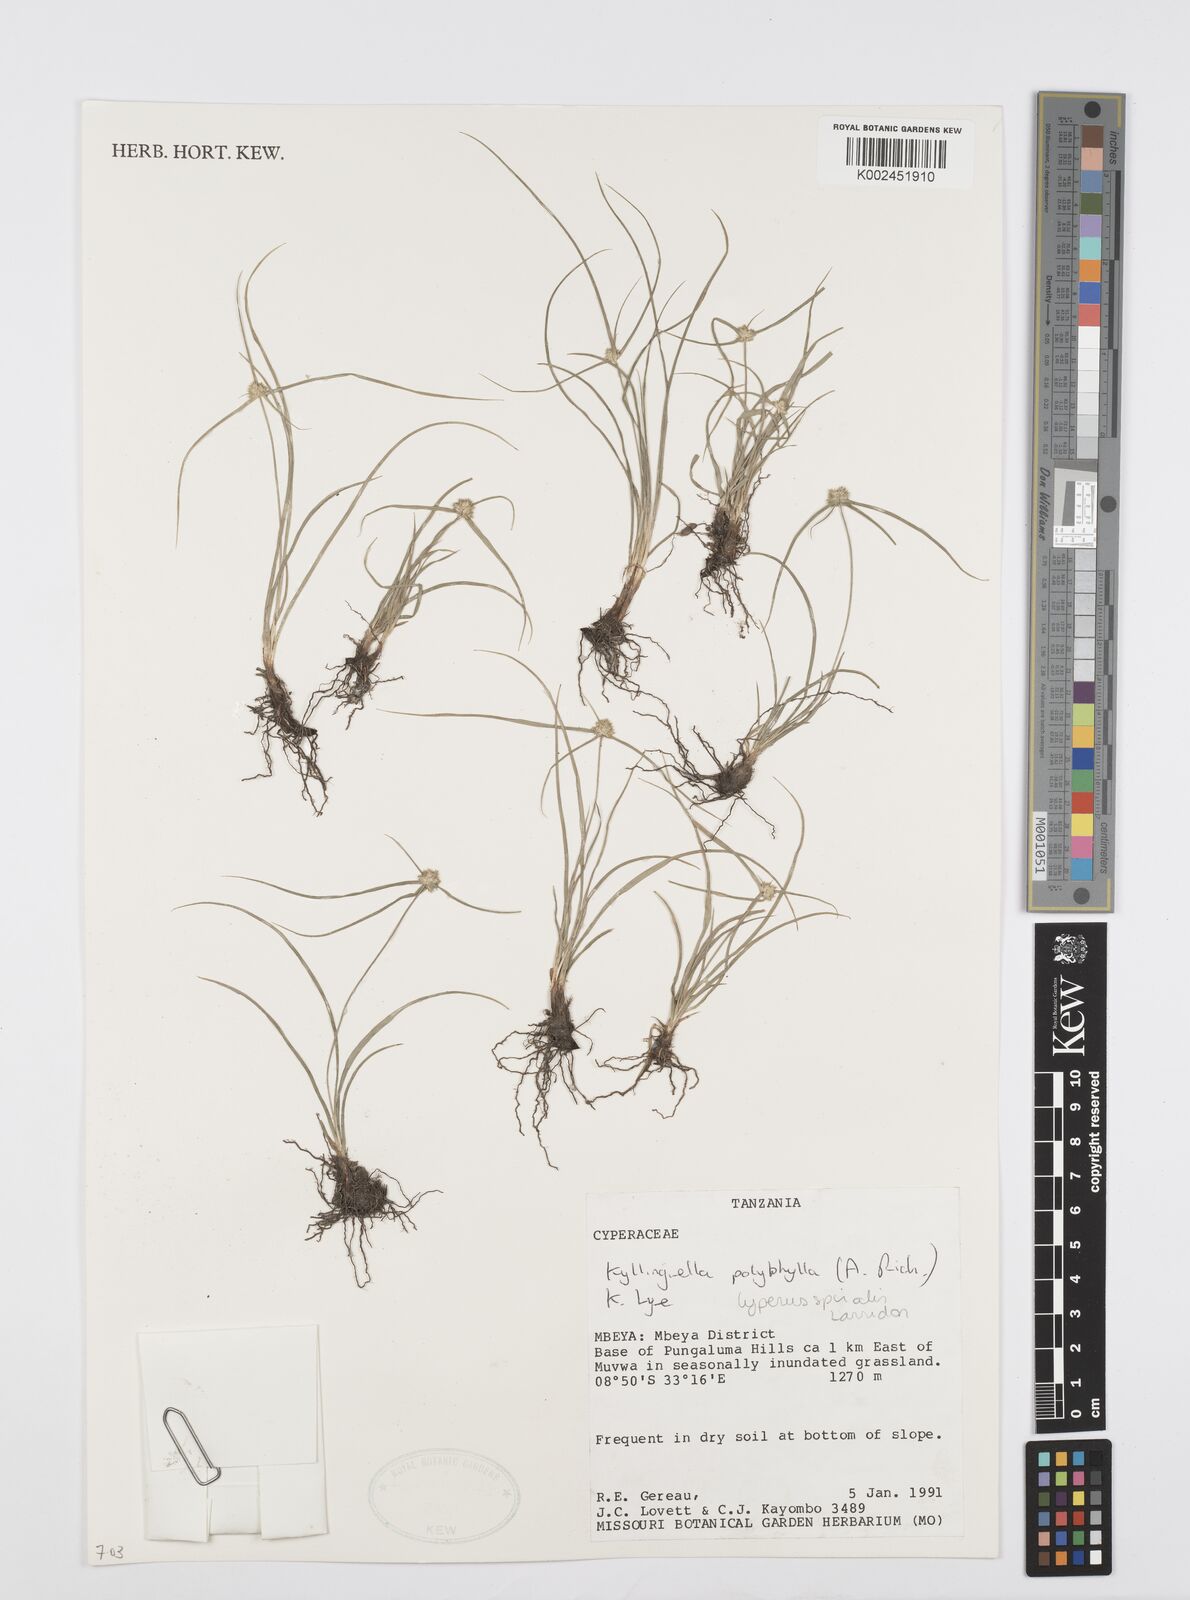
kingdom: Plantae
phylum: Tracheophyta
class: Liliopsida
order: Poales
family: Cyperaceae
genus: Cyperus
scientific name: Cyperus bulbosus
